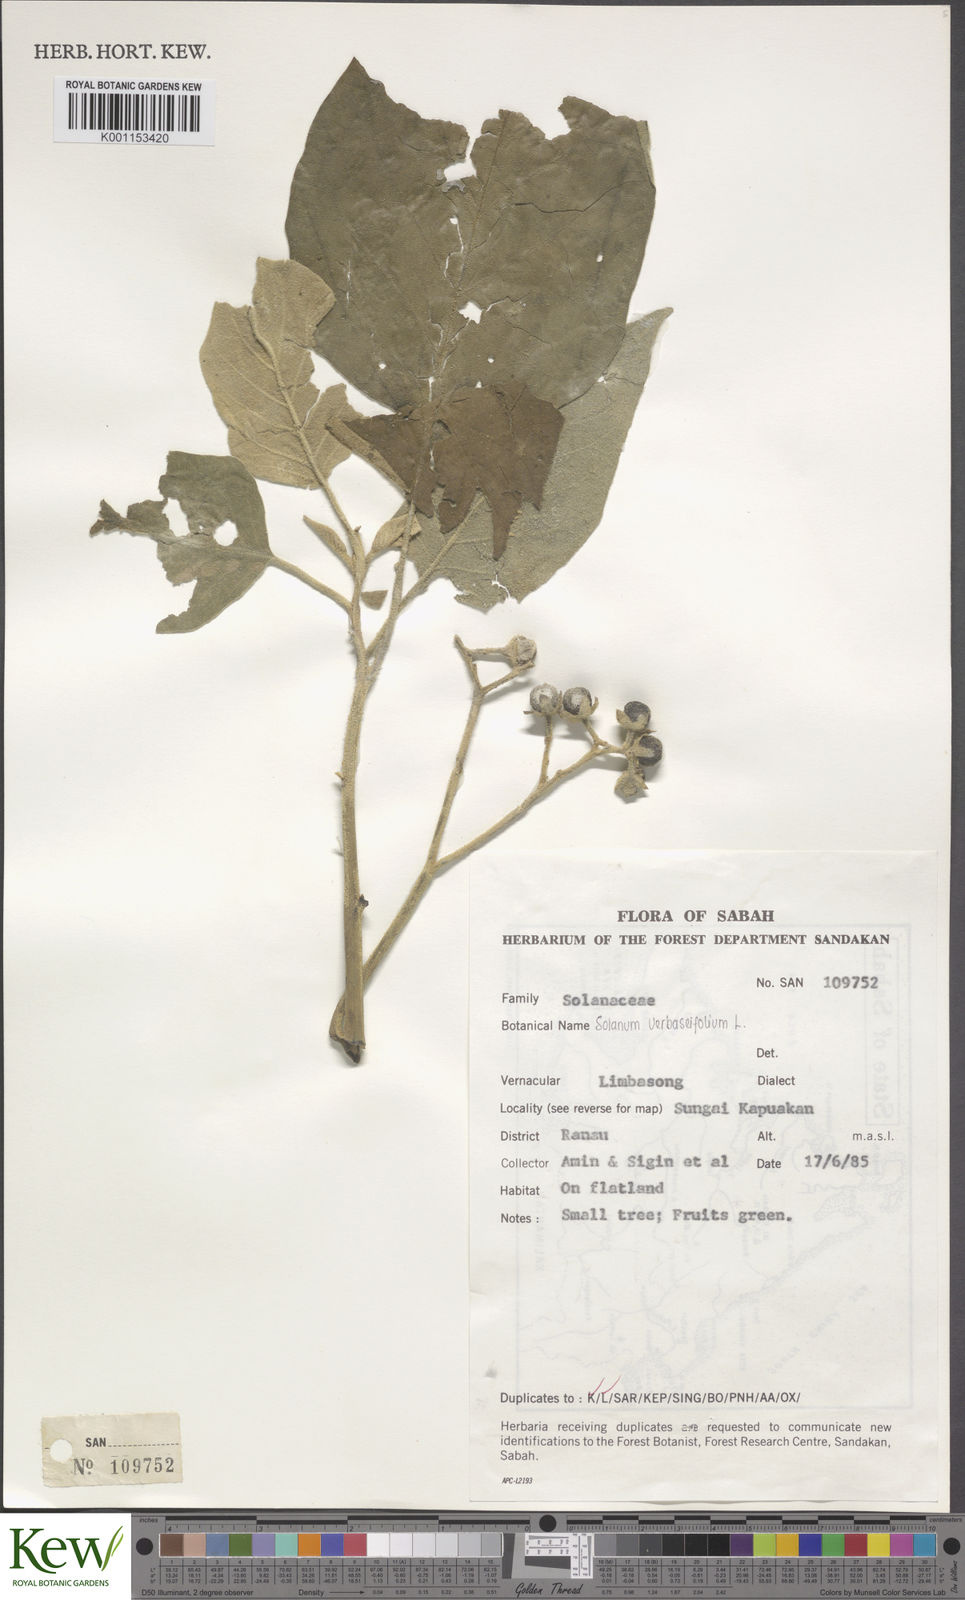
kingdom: Plantae
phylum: Tracheophyta
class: Magnoliopsida
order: Solanales
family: Solanaceae
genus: Solanum
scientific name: Solanum erianthum
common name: Tobacco-tree
